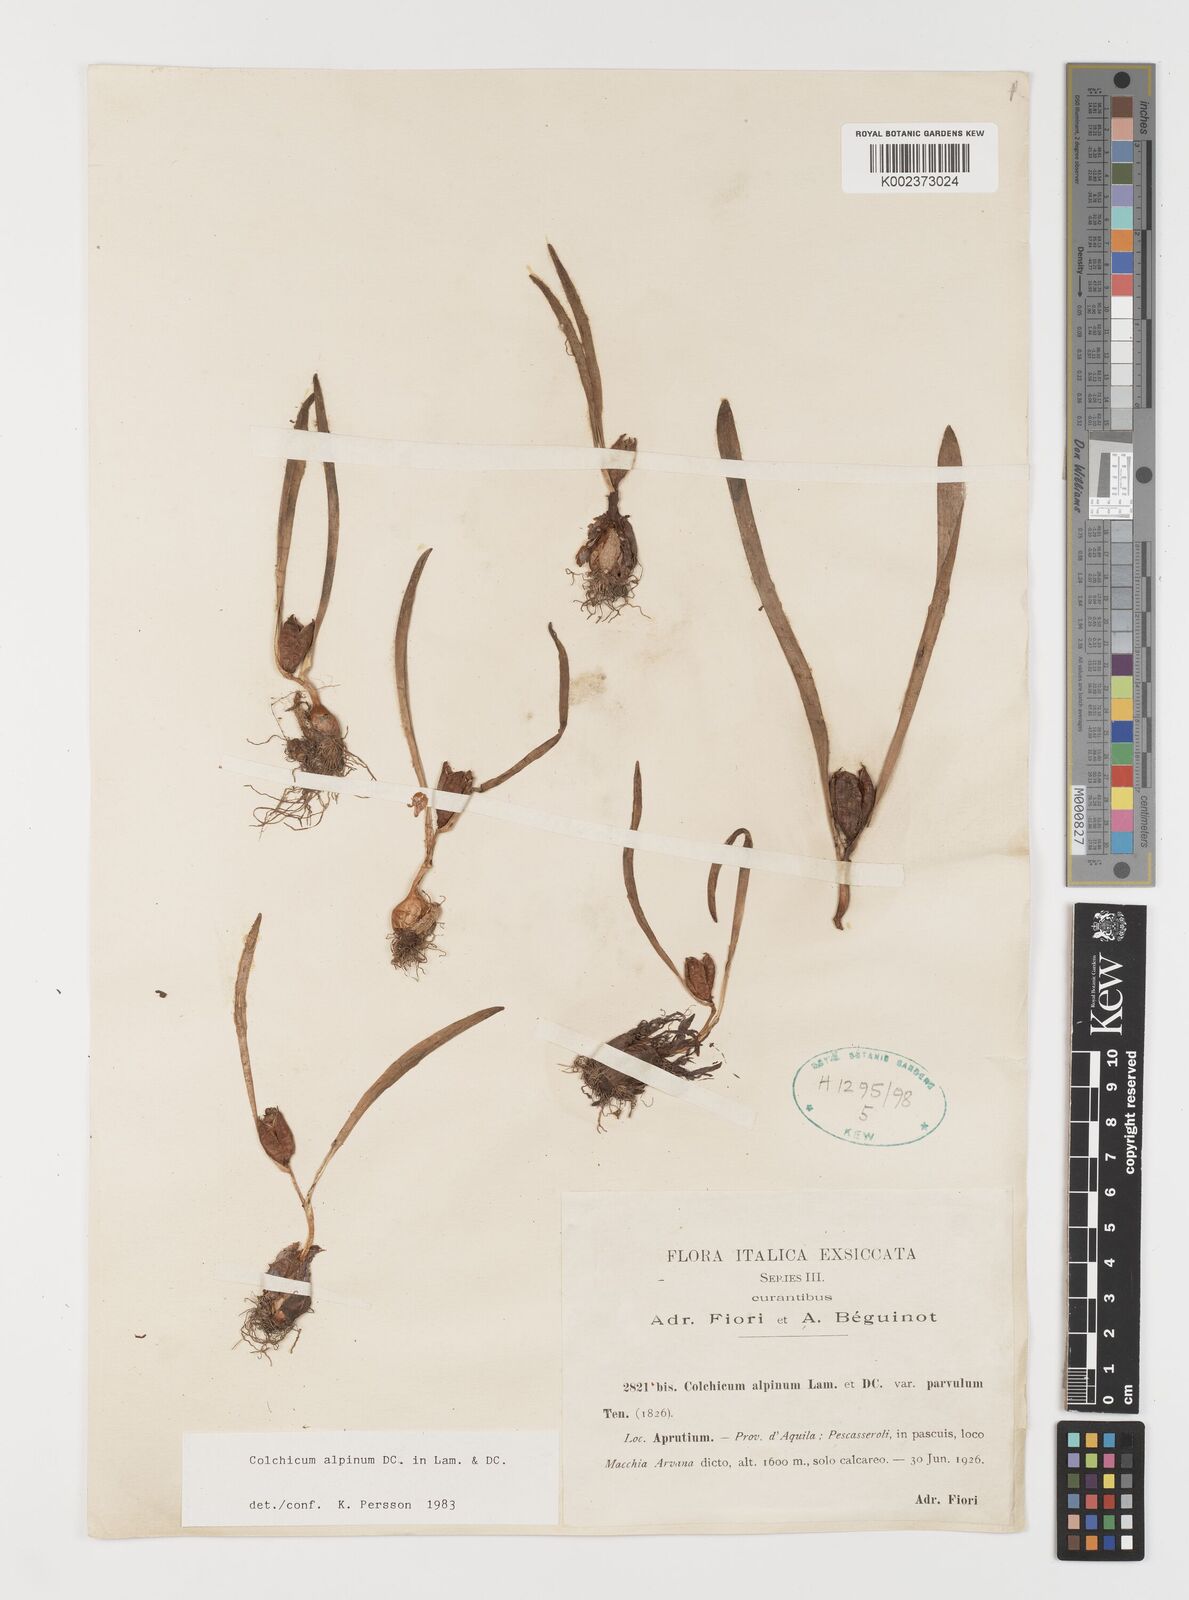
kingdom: Plantae
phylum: Tracheophyta
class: Liliopsida
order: Liliales
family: Colchicaceae
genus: Colchicum
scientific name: Colchicum alpinum
